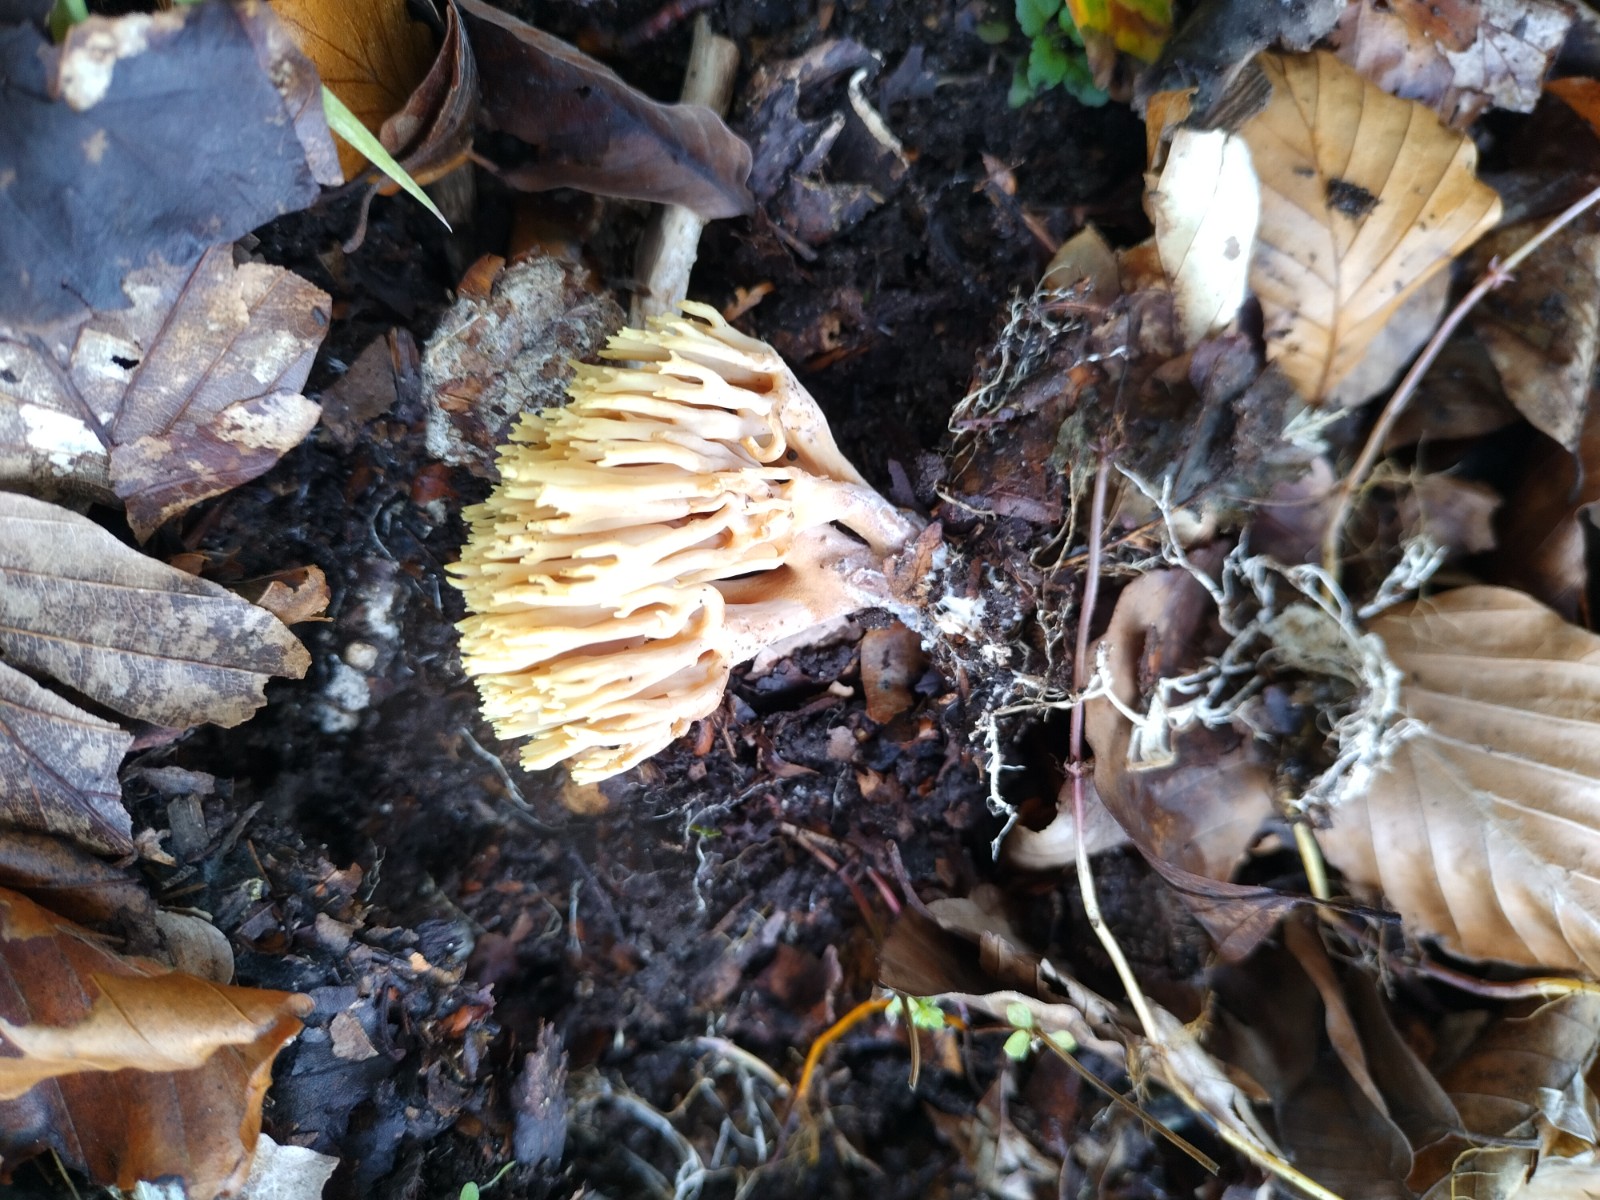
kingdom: Fungi
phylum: Basidiomycota
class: Agaricomycetes
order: Gomphales
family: Gomphaceae
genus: Ramaria
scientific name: Ramaria stricta
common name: rank koralsvamp
